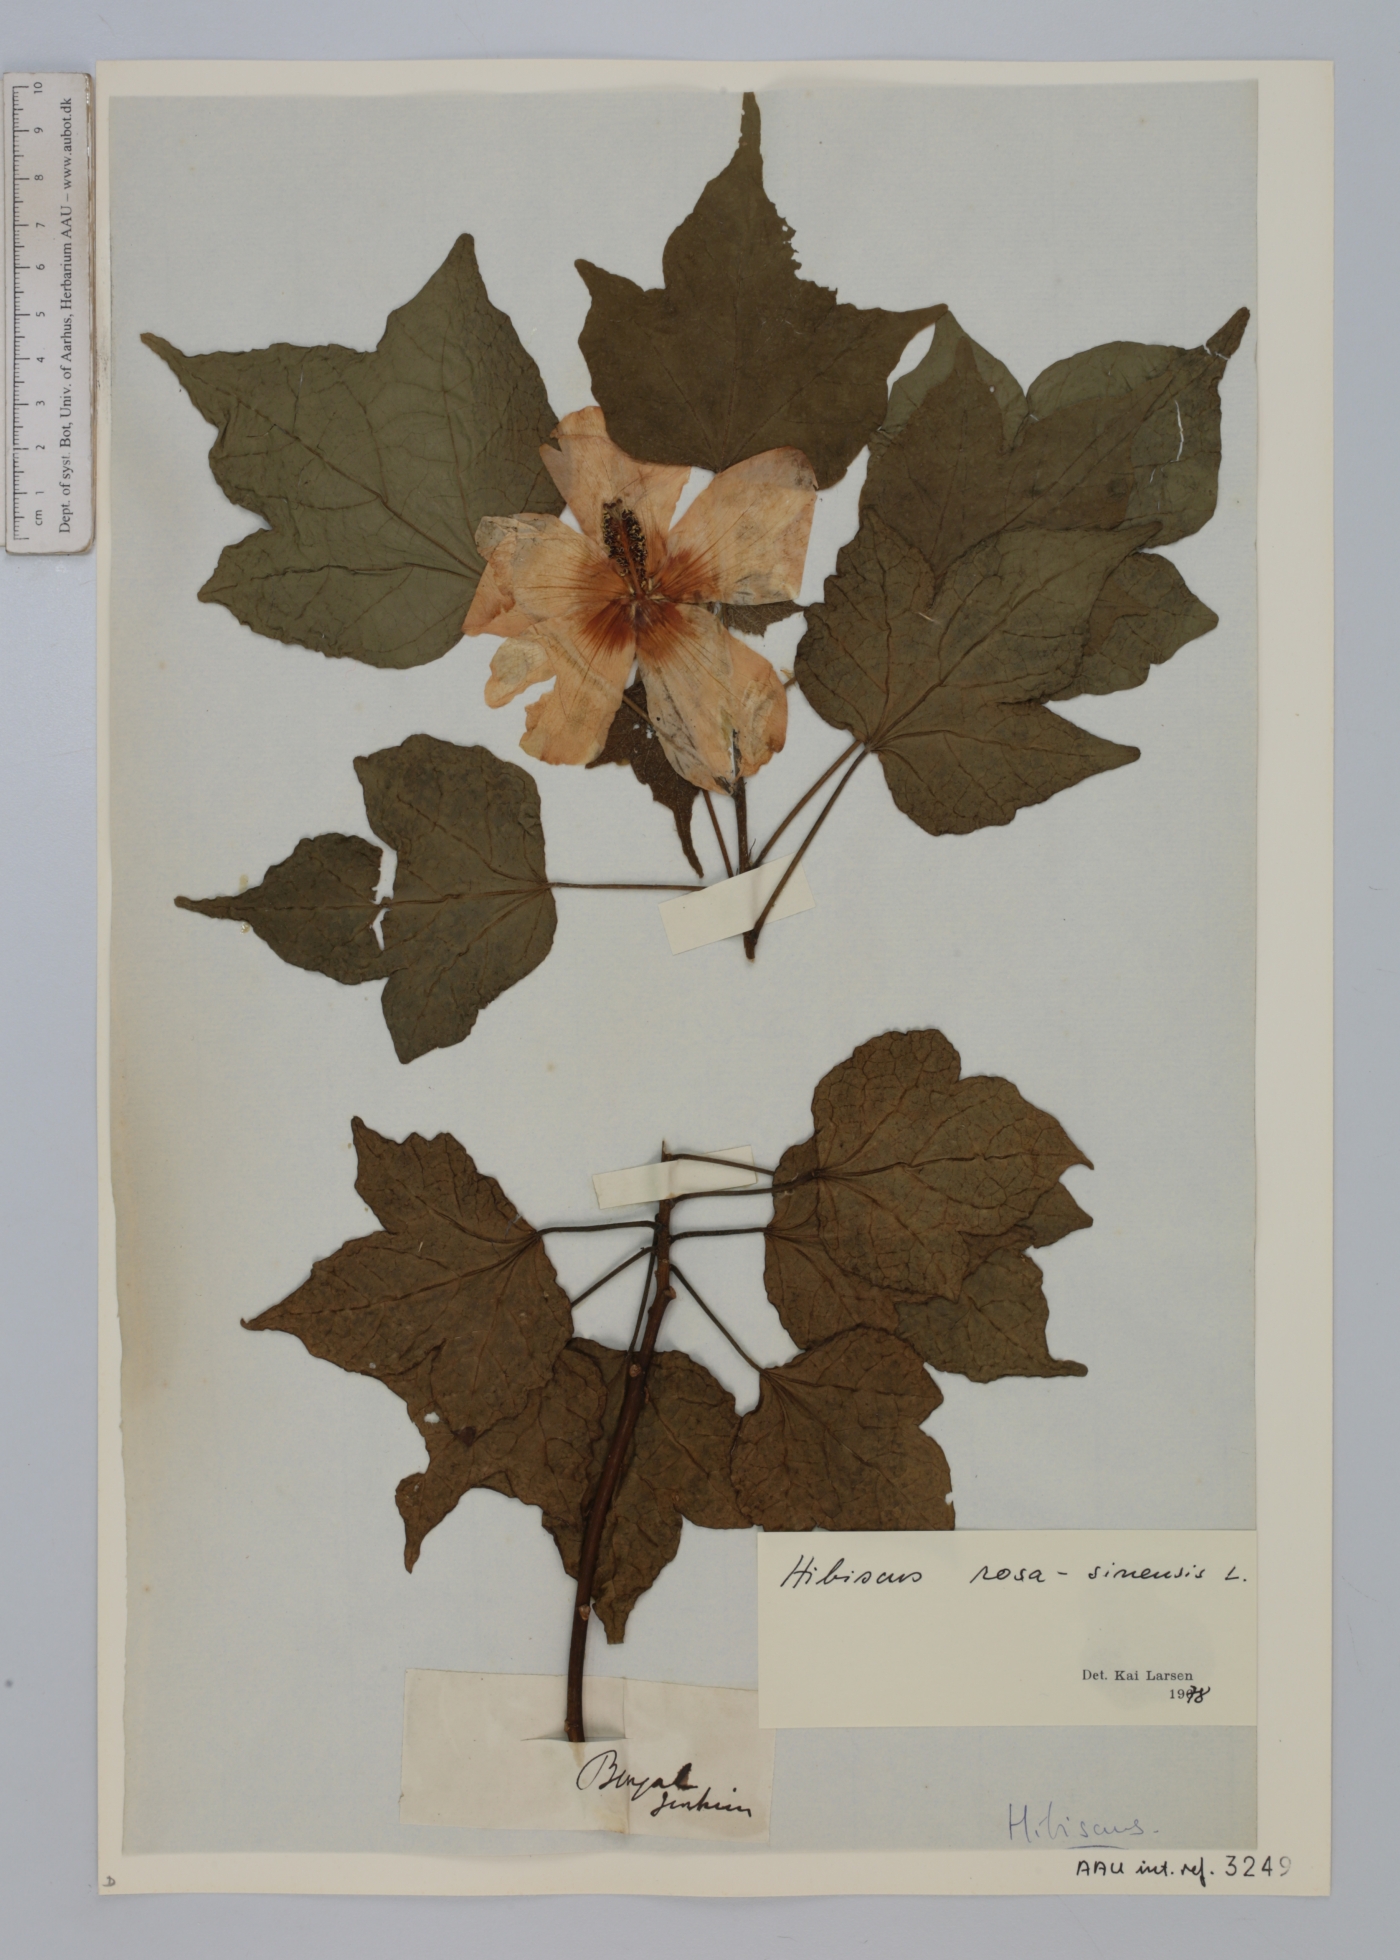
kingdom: Plantae
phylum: Tracheophyta
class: Magnoliopsida
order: Malvales
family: Malvaceae
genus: Hibiscus
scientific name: Hibiscus rosa-sinensis
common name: Hibiscus
